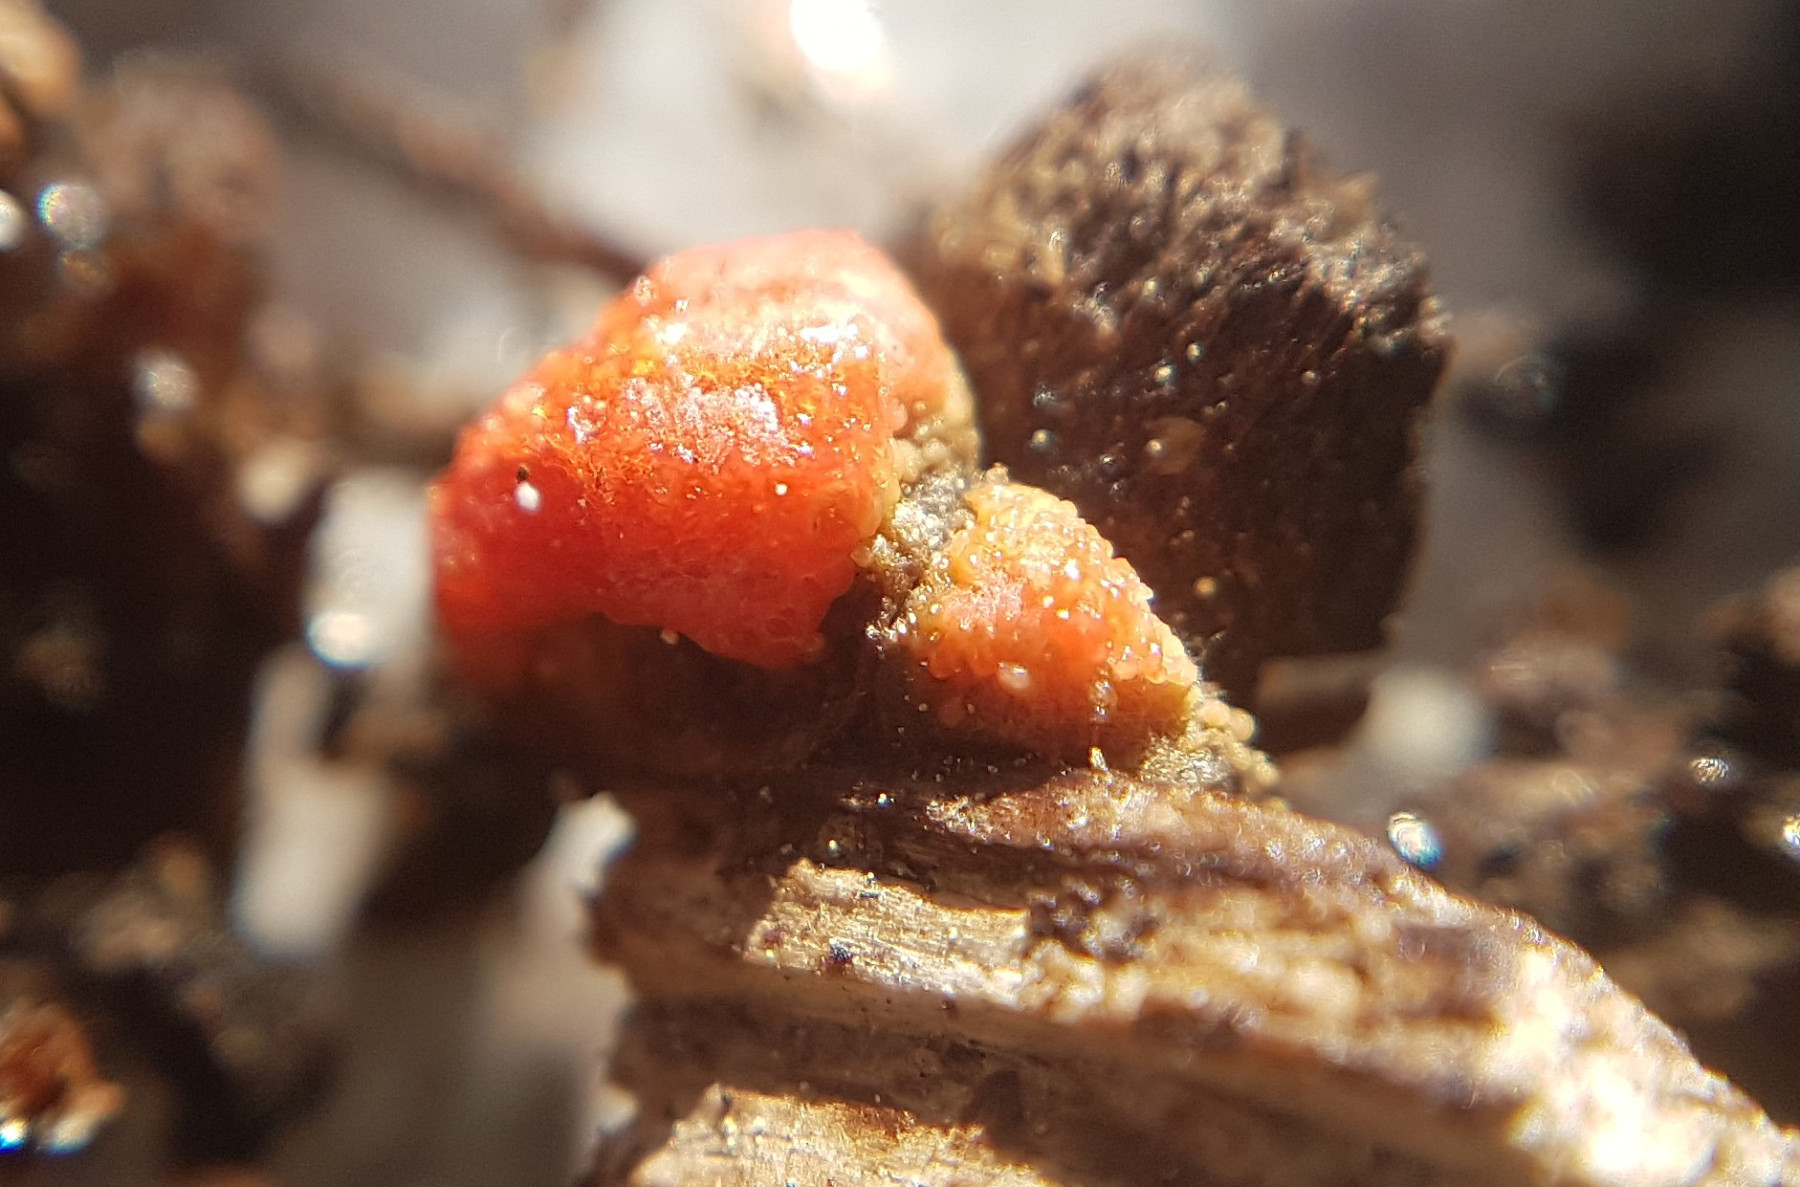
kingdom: Fungi
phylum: Mucoromycota
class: Mucoromycetes
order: Mucorales
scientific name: Mucorales
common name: mugordenen
